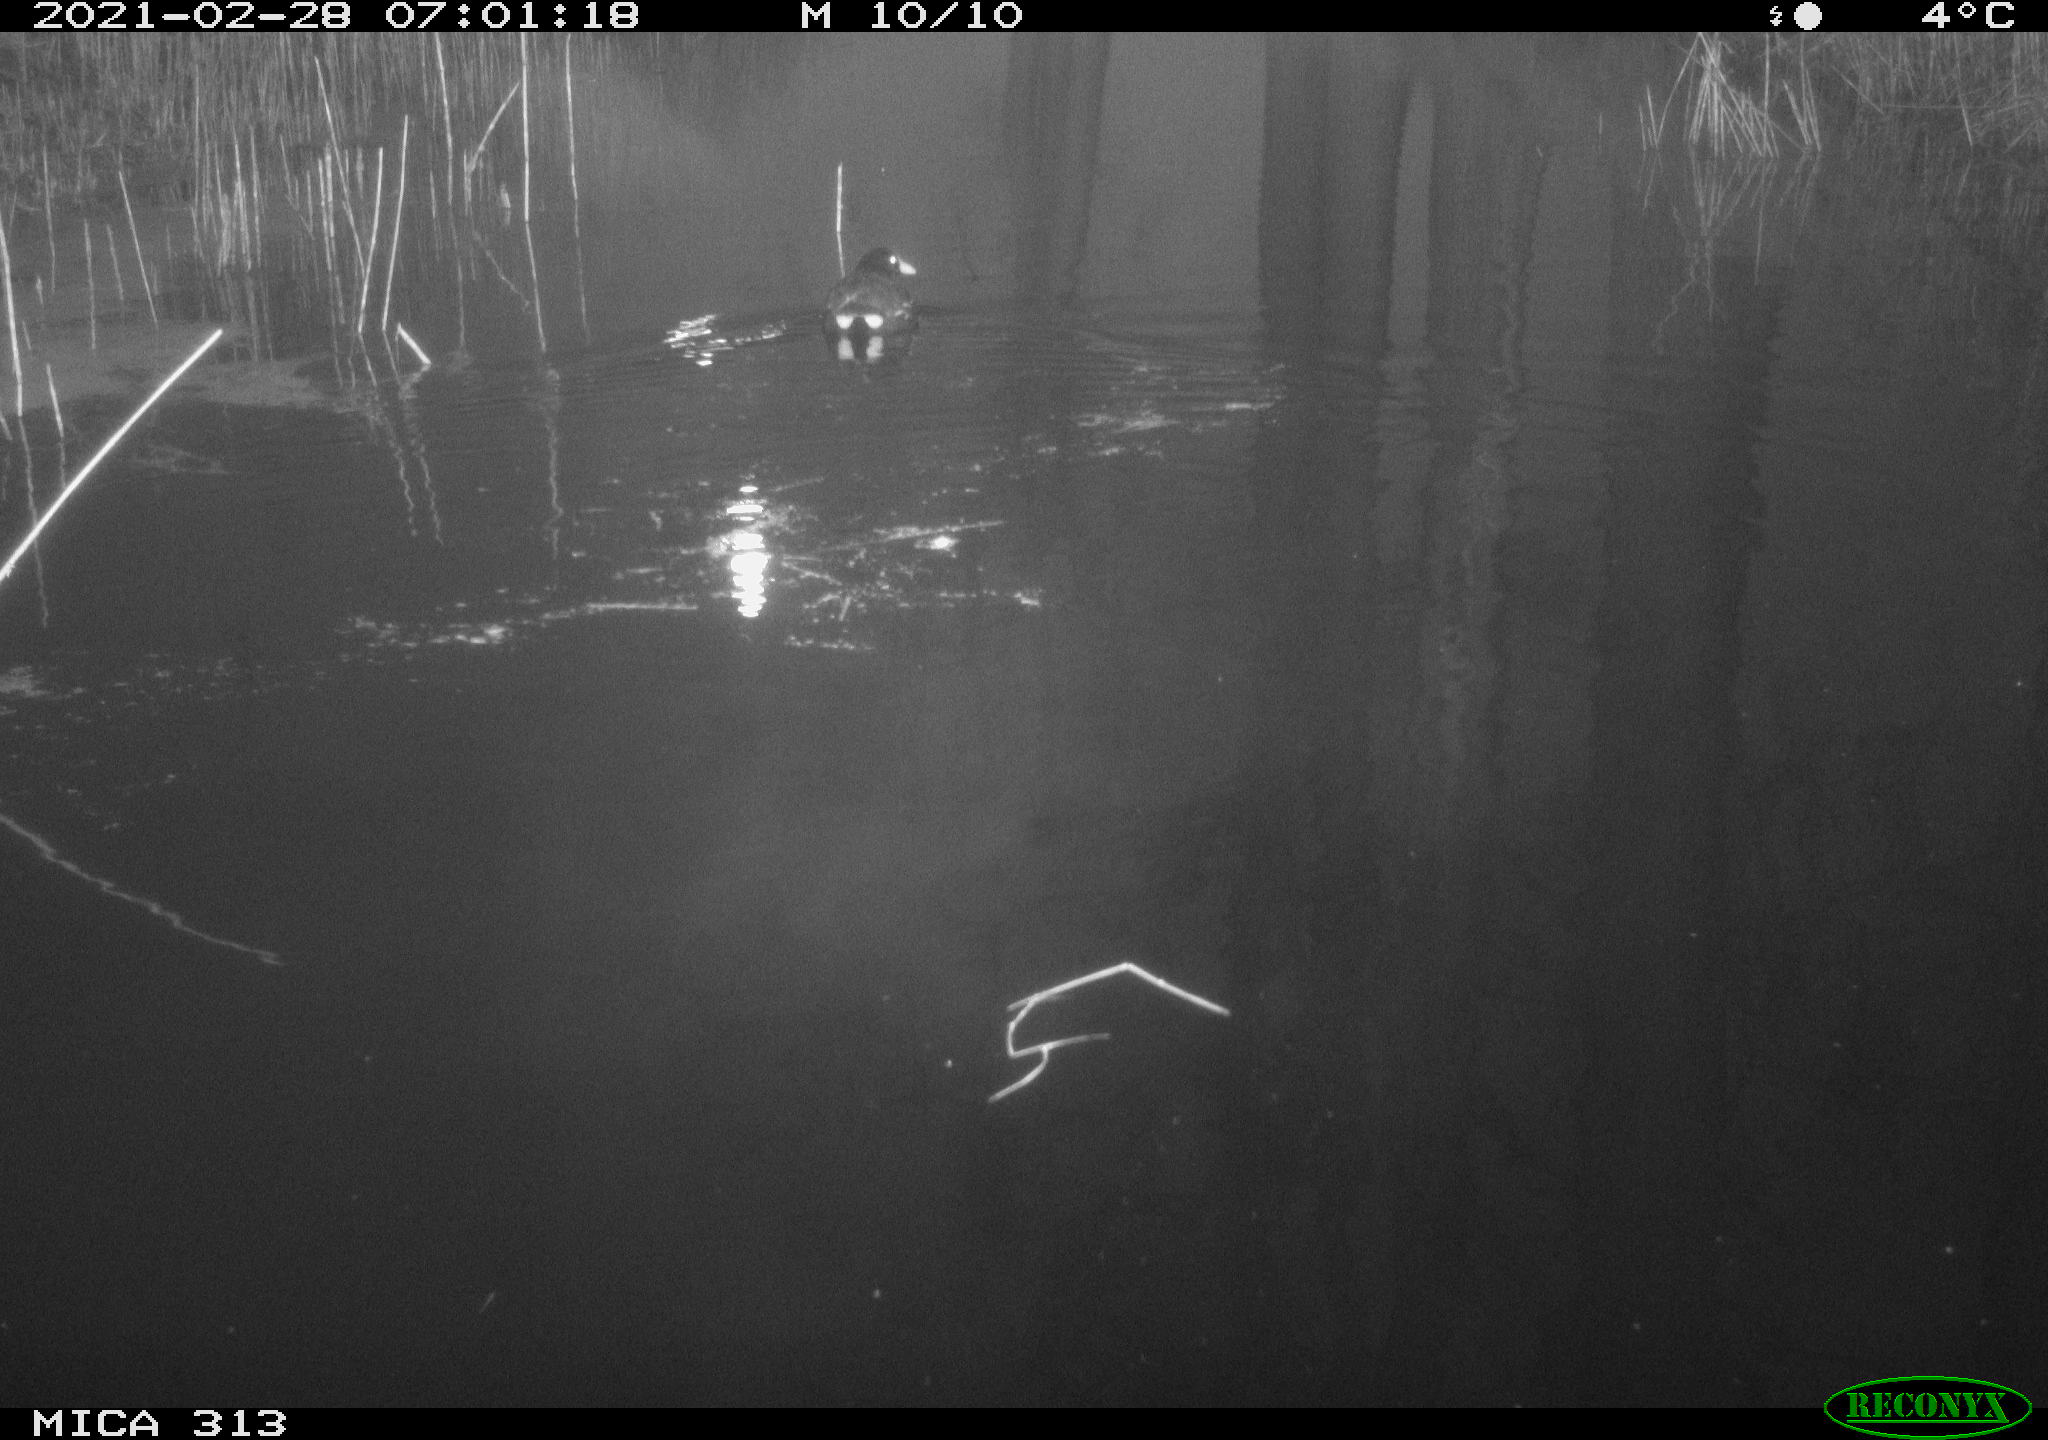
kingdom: Animalia
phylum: Chordata
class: Aves
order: Gruiformes
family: Rallidae
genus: Gallinula
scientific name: Gallinula chloropus
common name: Common moorhen
